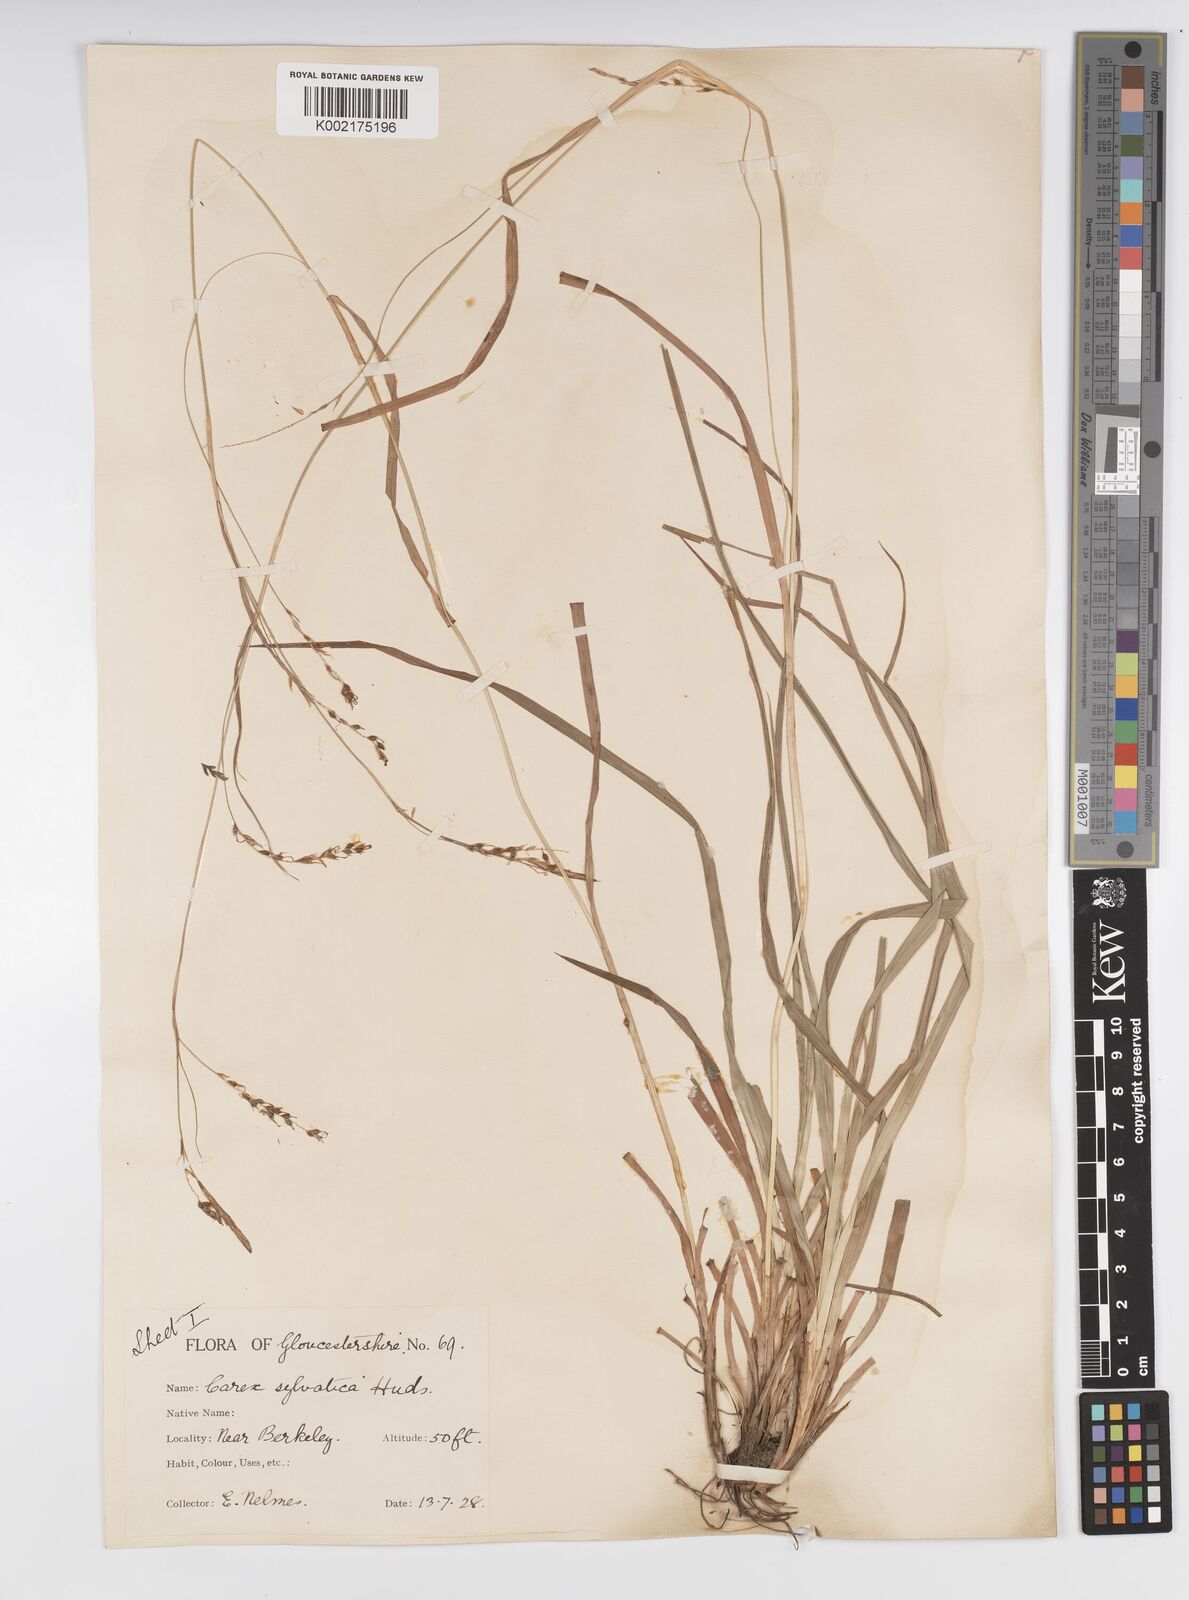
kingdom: Plantae
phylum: Tracheophyta
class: Liliopsida
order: Poales
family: Cyperaceae
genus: Carex
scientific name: Carex sylvatica
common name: Wood-sedge
